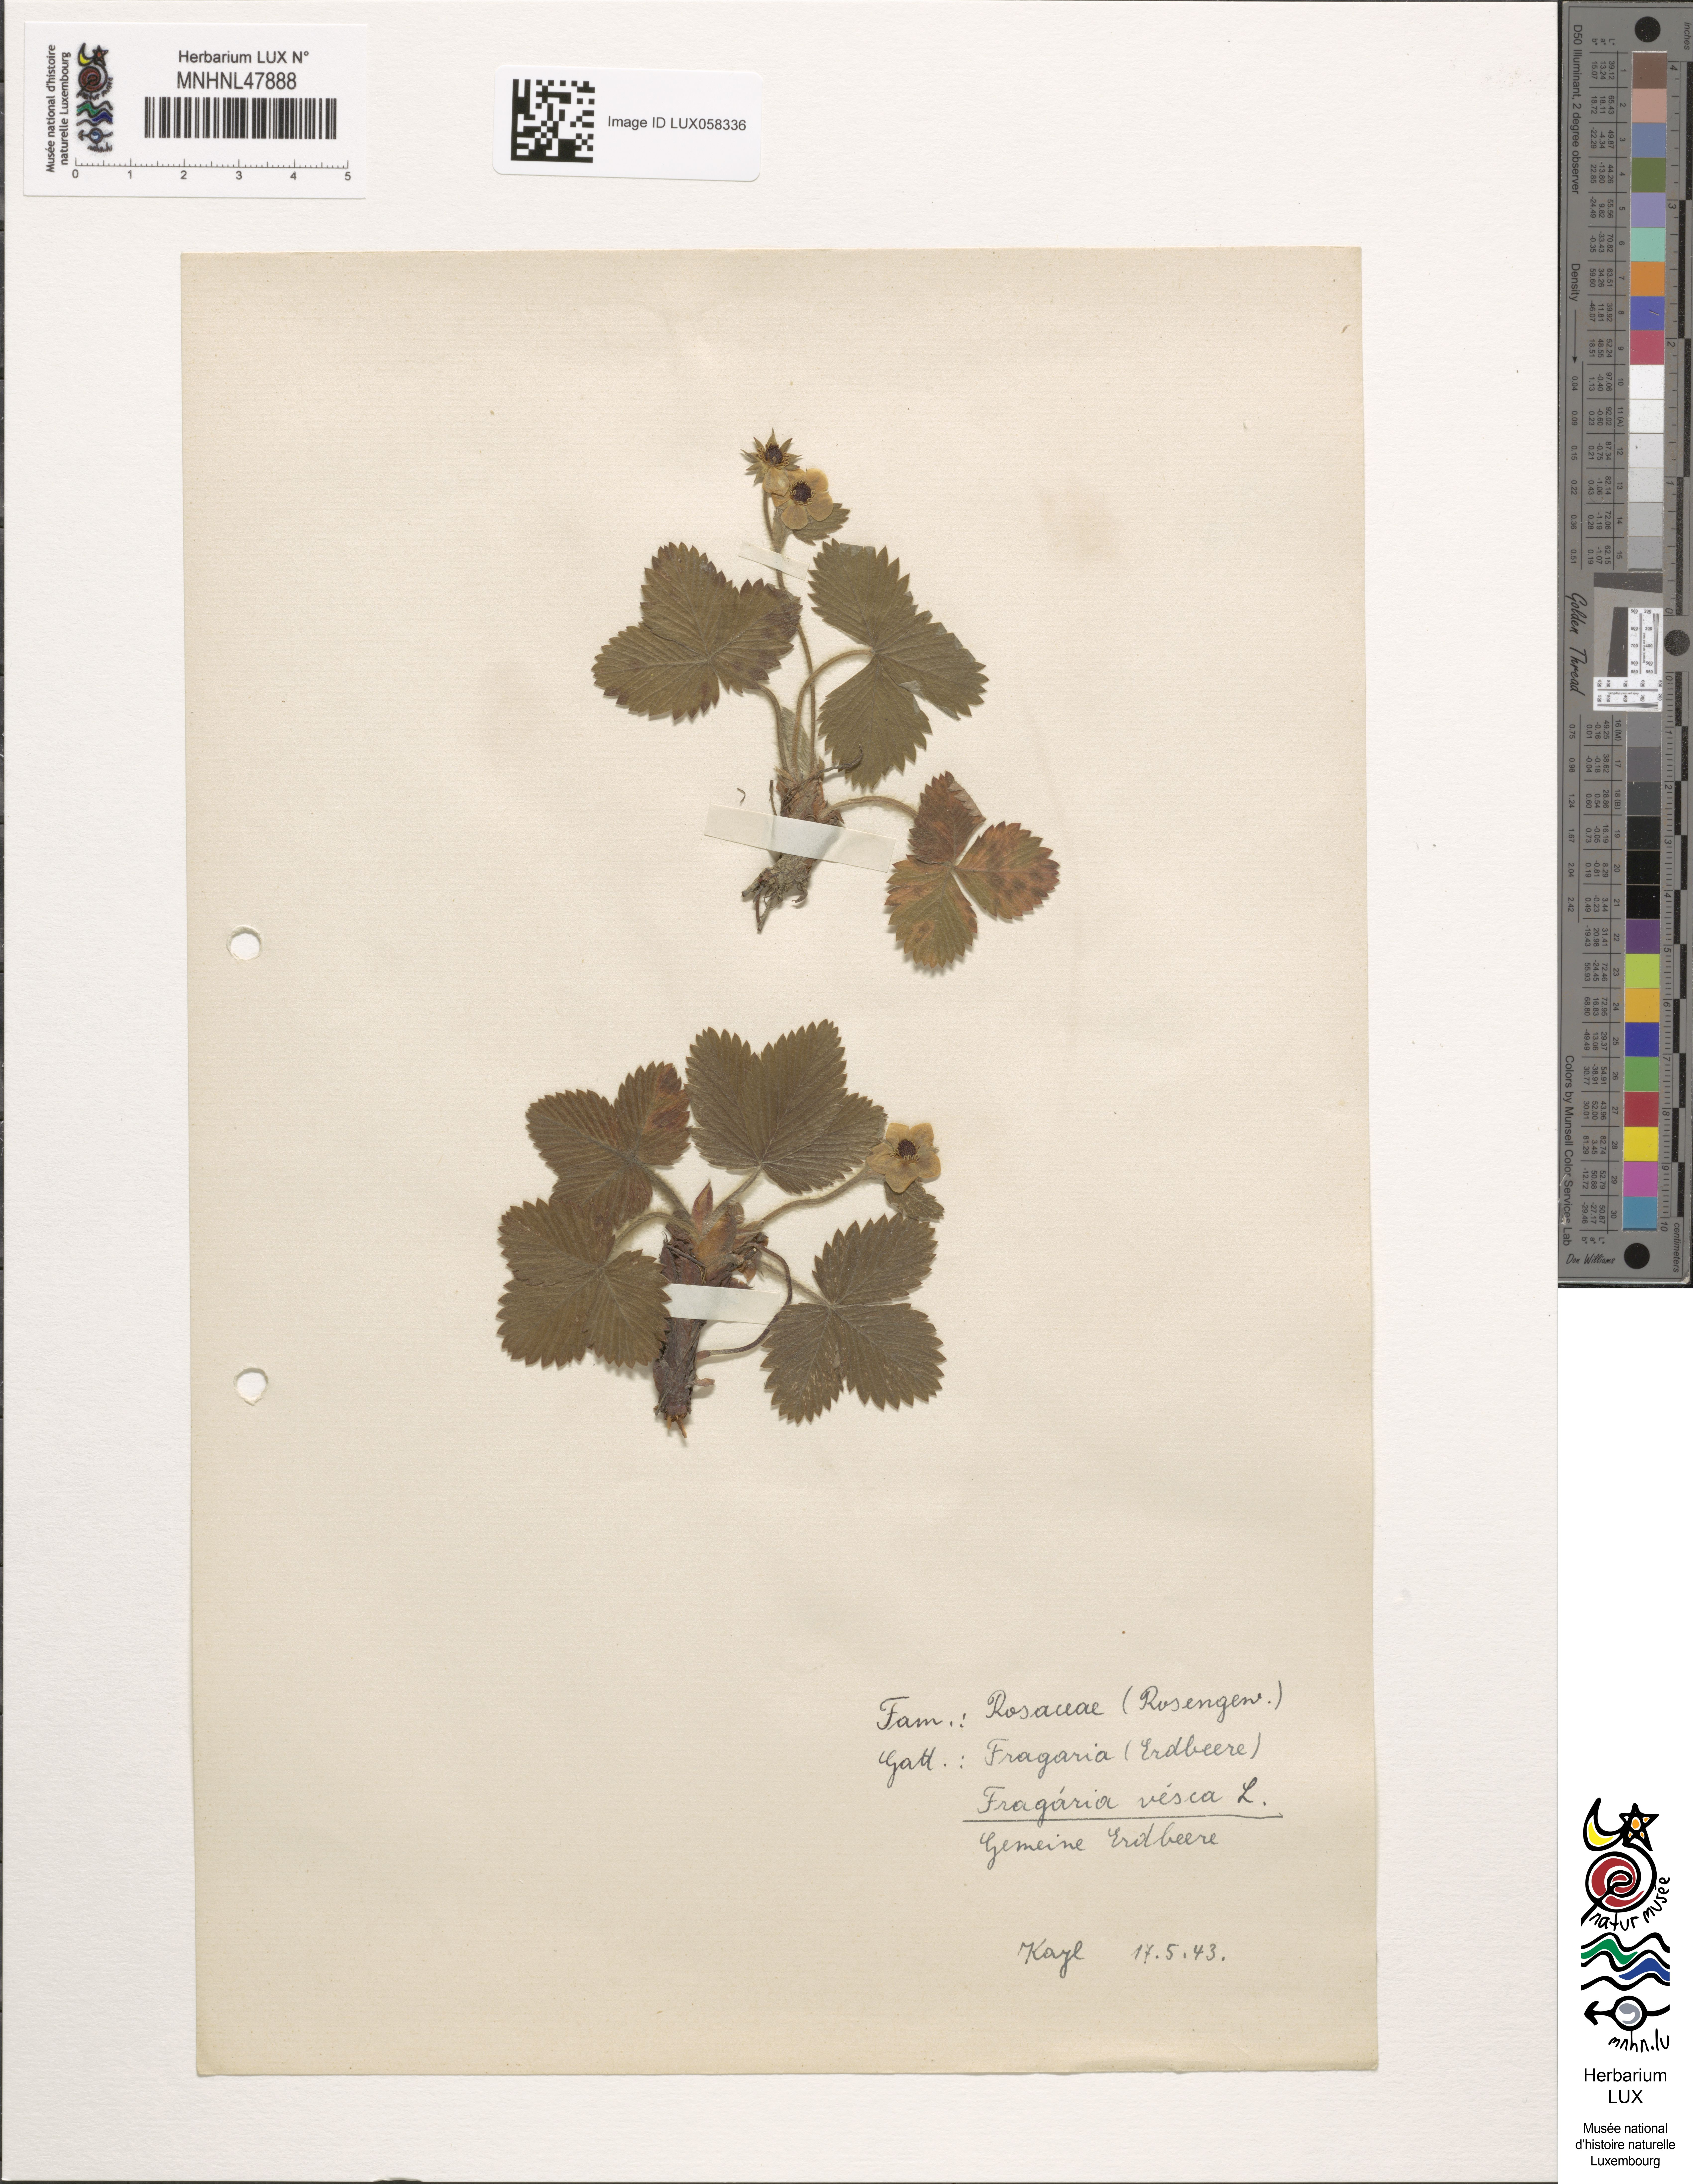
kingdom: Plantae
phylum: Tracheophyta
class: Magnoliopsida
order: Rosales
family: Rosaceae
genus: Fragaria
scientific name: Fragaria vesca
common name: Wild strawberry
